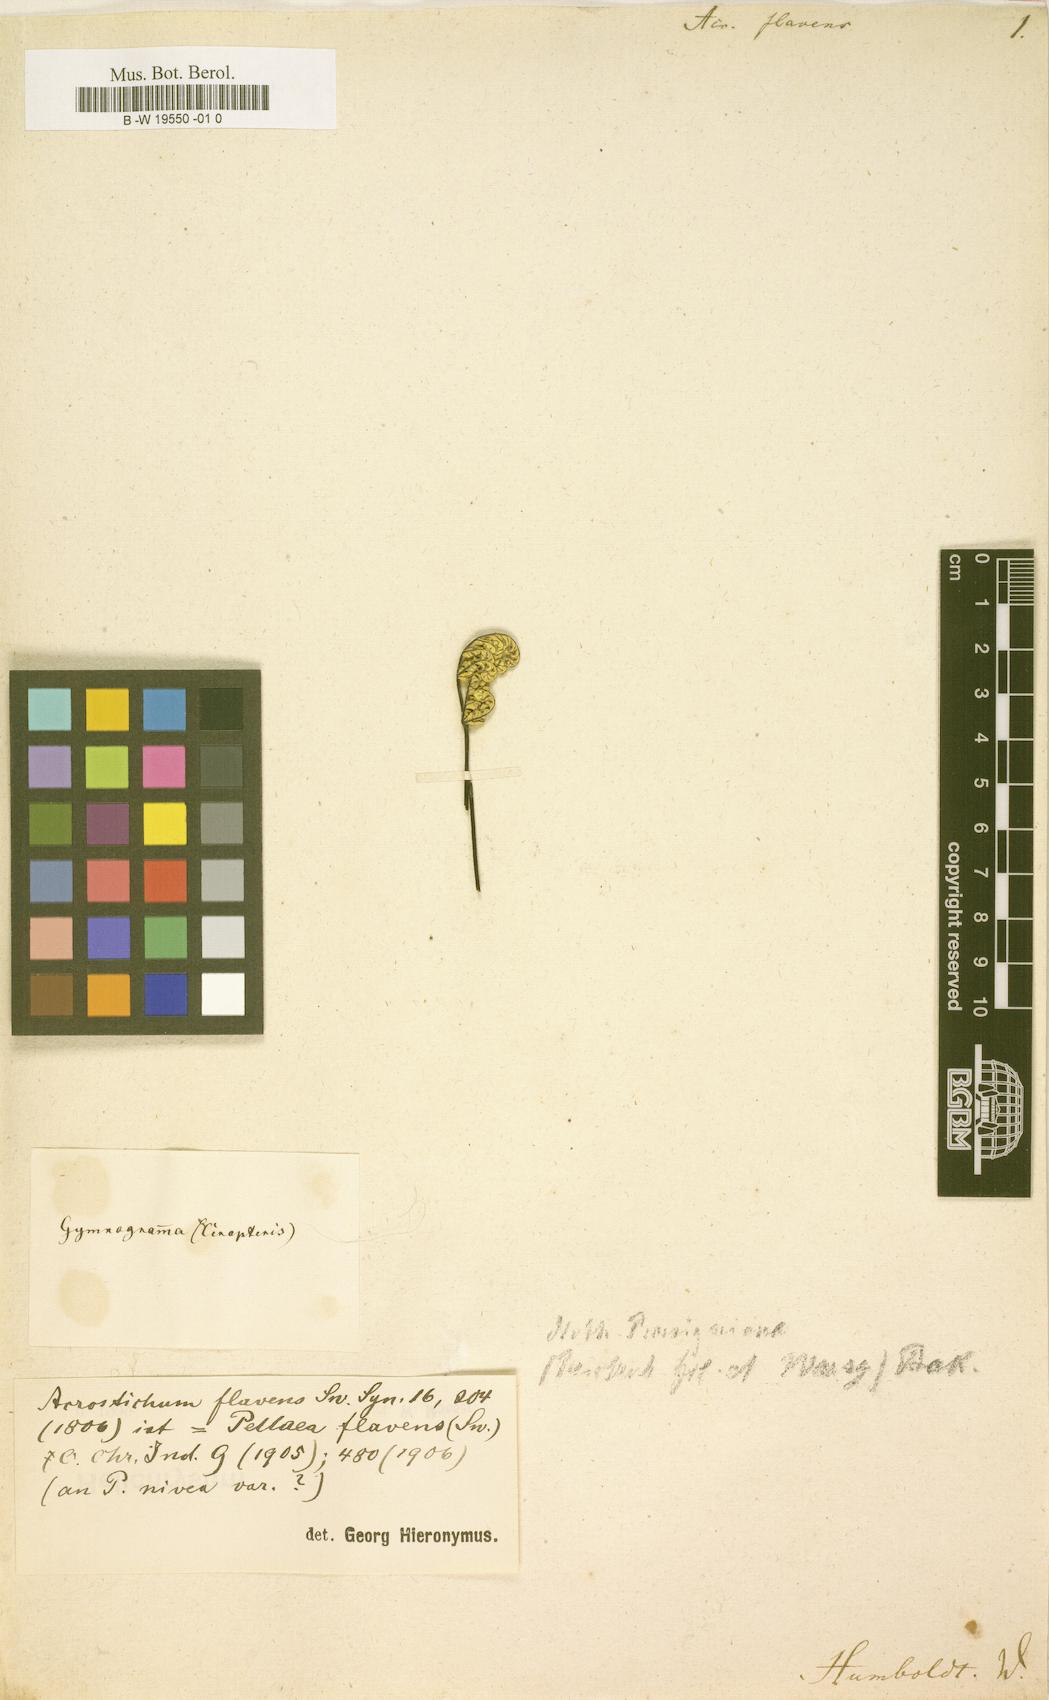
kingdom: Plantae
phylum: Tracheophyta
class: Polypodiopsida
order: Polypodiales
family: Pteridaceae
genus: Argyrochosma
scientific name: Argyrochosma flava
